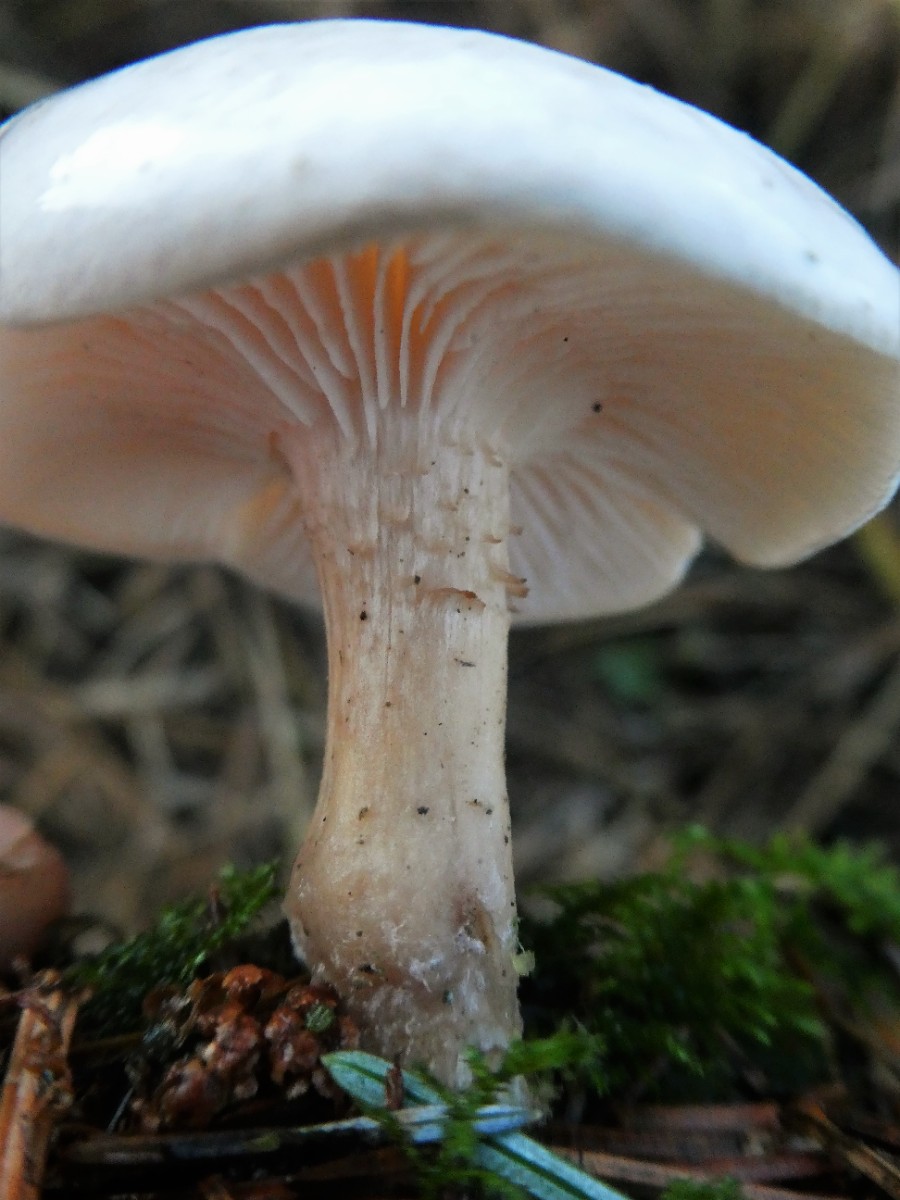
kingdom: Fungi
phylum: Basidiomycota
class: Agaricomycetes
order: Agaricales
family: Tricholomataceae
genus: Clitocybe
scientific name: Clitocybe rivulosa
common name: eng-tragthat
